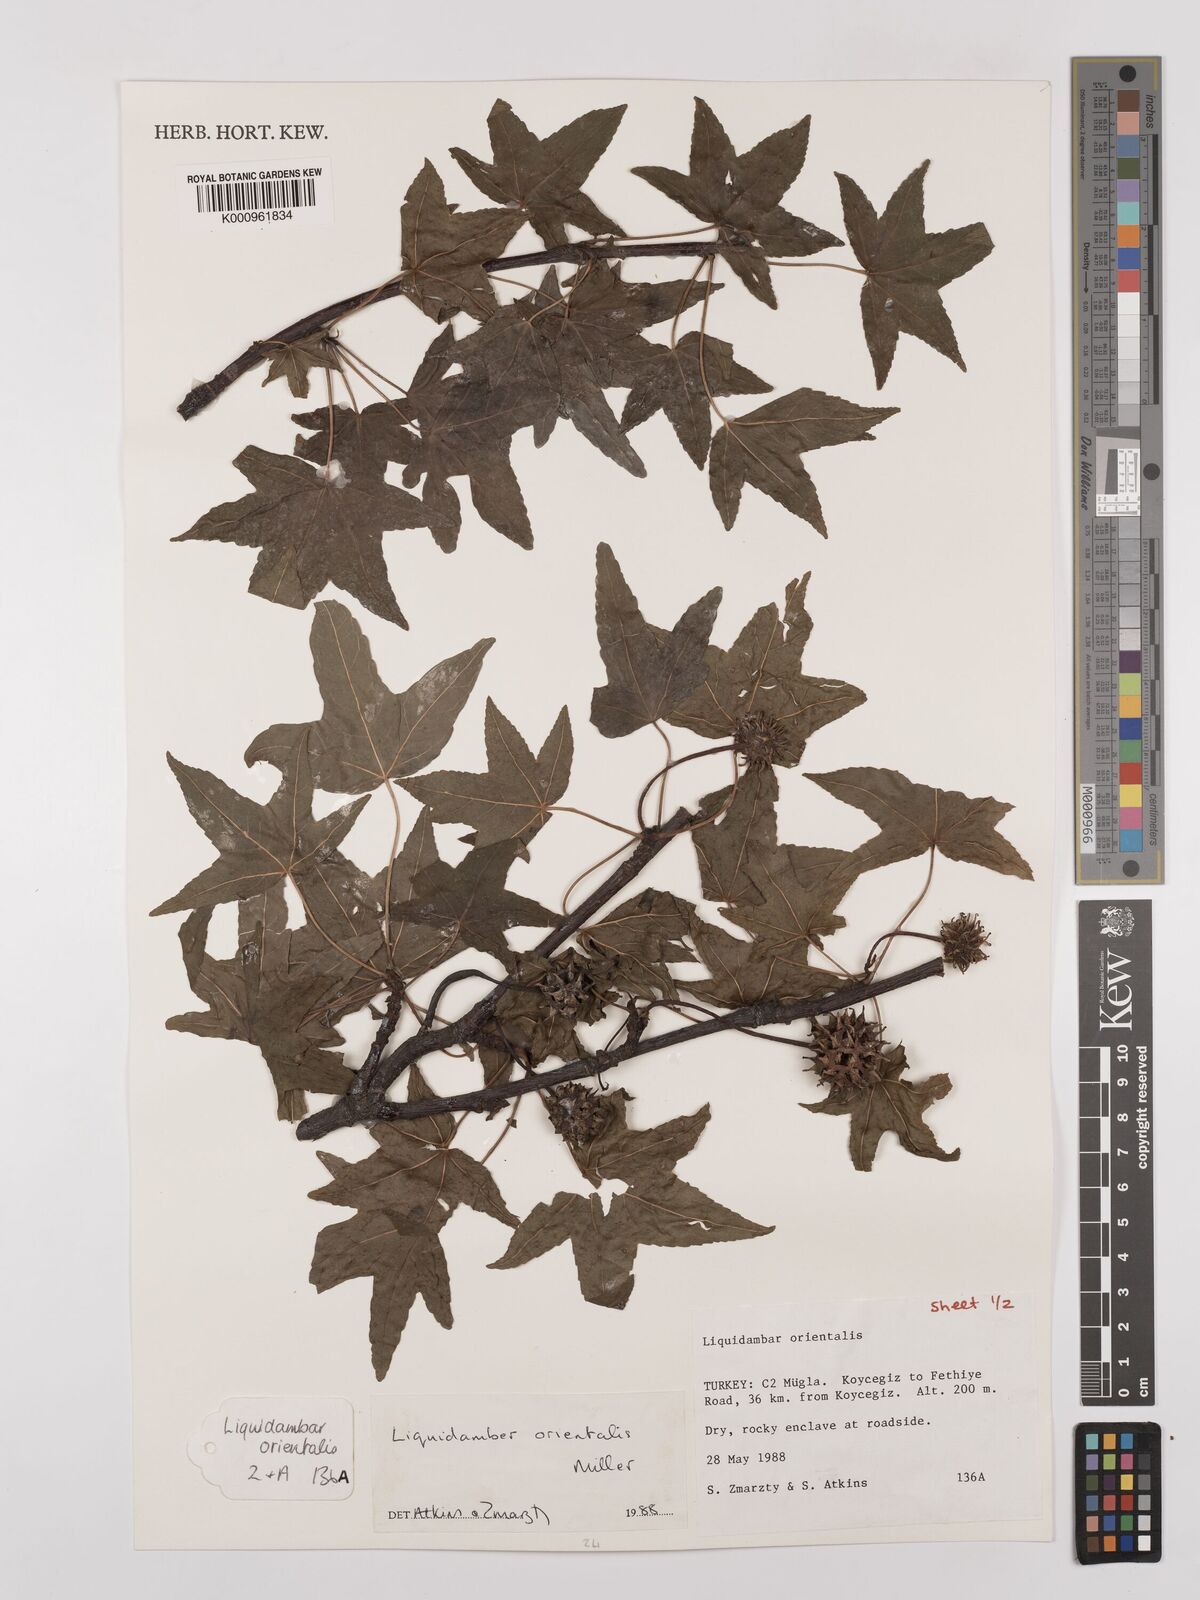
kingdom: Plantae
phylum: Tracheophyta
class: Magnoliopsida
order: Saxifragales
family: Altingiaceae
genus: Liquidambar
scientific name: Liquidambar orientalis
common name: Oriental sweetgum
